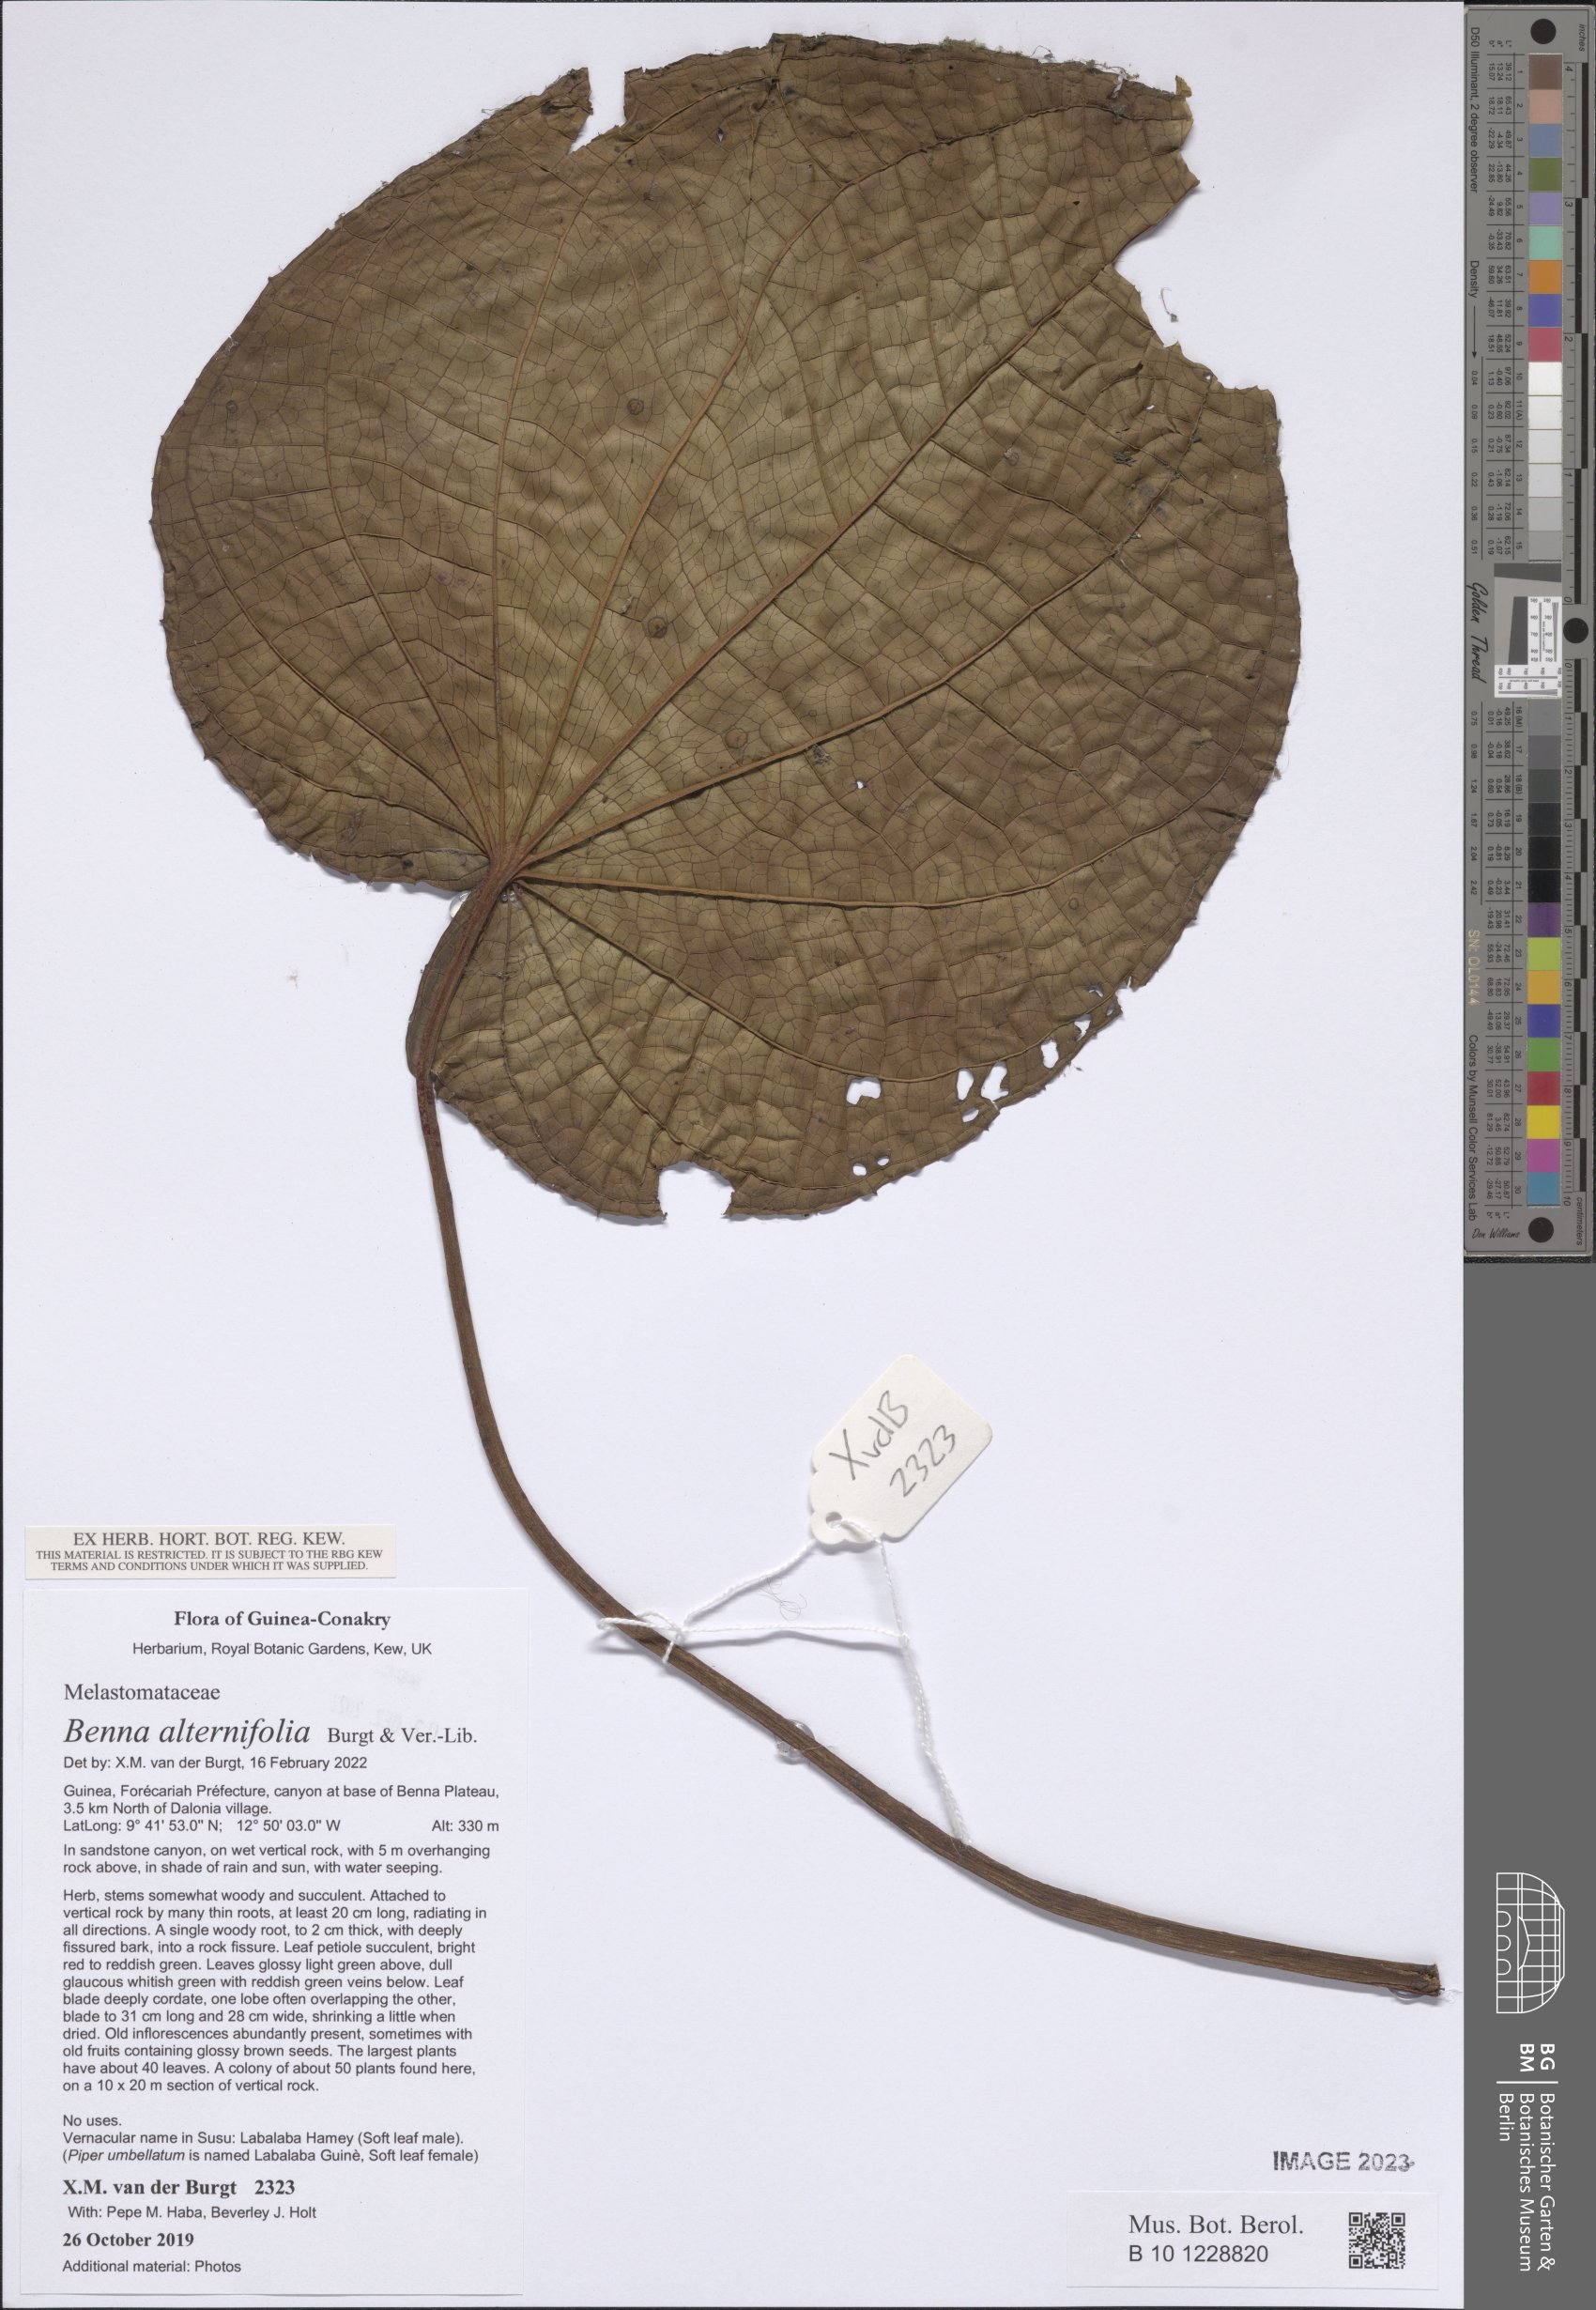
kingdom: Plantae
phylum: Tracheophyta
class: Magnoliopsida
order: Myrtales
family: Melastomataceae
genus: Benna
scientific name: Benna alternifolia
